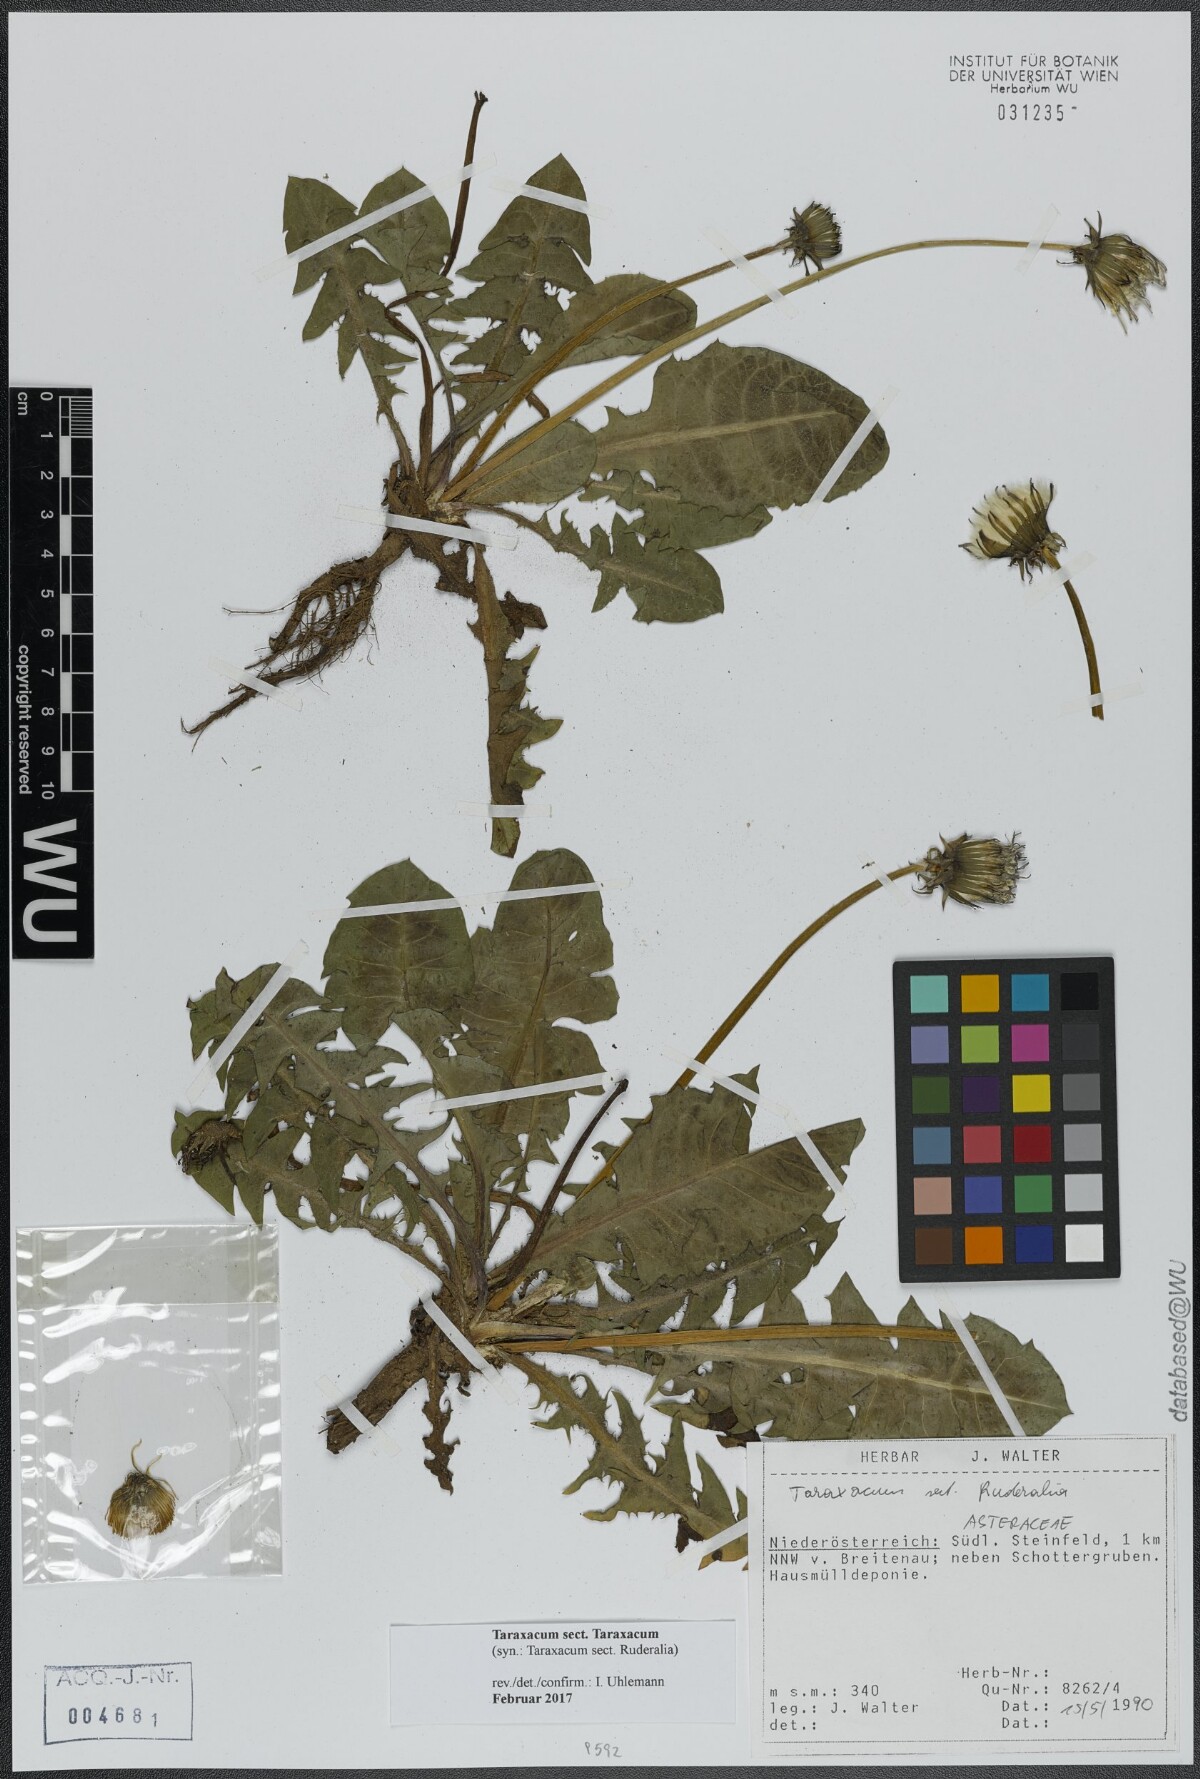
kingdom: Plantae
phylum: Tracheophyta
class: Magnoliopsida
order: Asterales
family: Asteraceae
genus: Taraxacum
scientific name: Taraxacum
